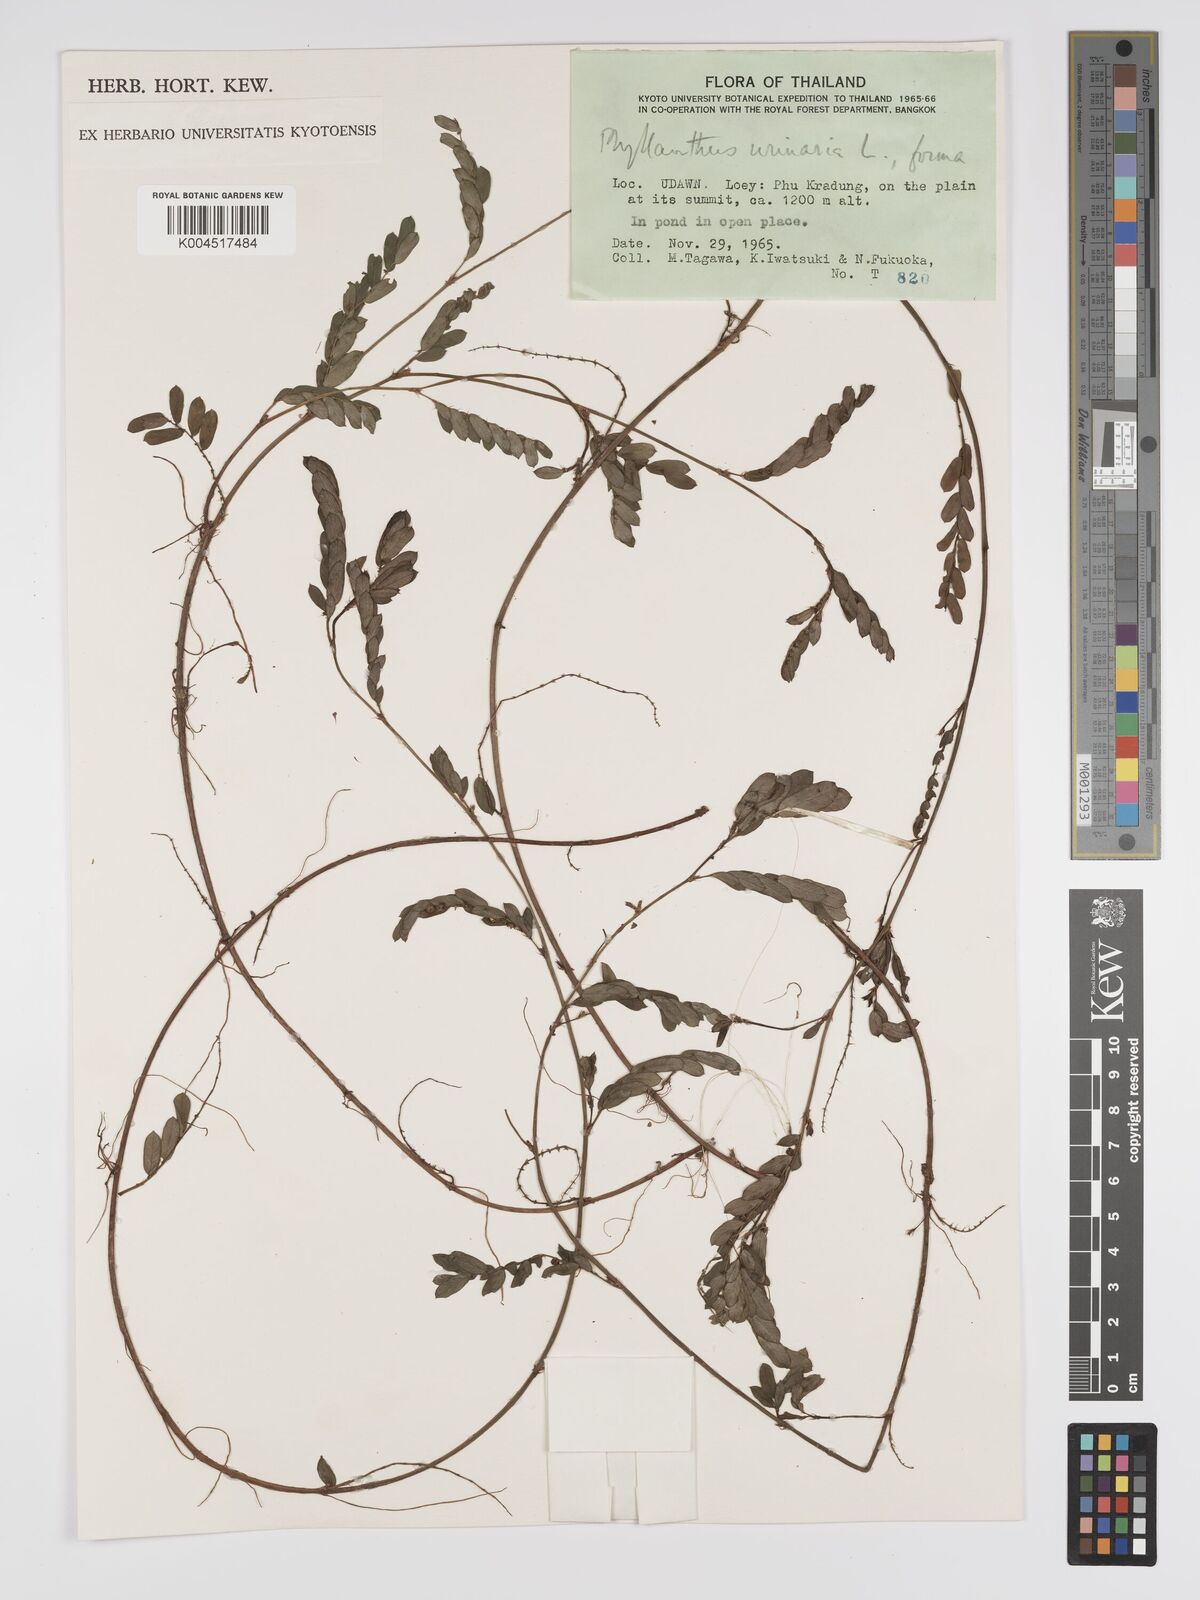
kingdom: Plantae
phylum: Tracheophyta
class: Magnoliopsida
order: Malpighiales
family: Phyllanthaceae
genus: Phyllanthus
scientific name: Phyllanthus urinaria
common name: Chamber bitter
